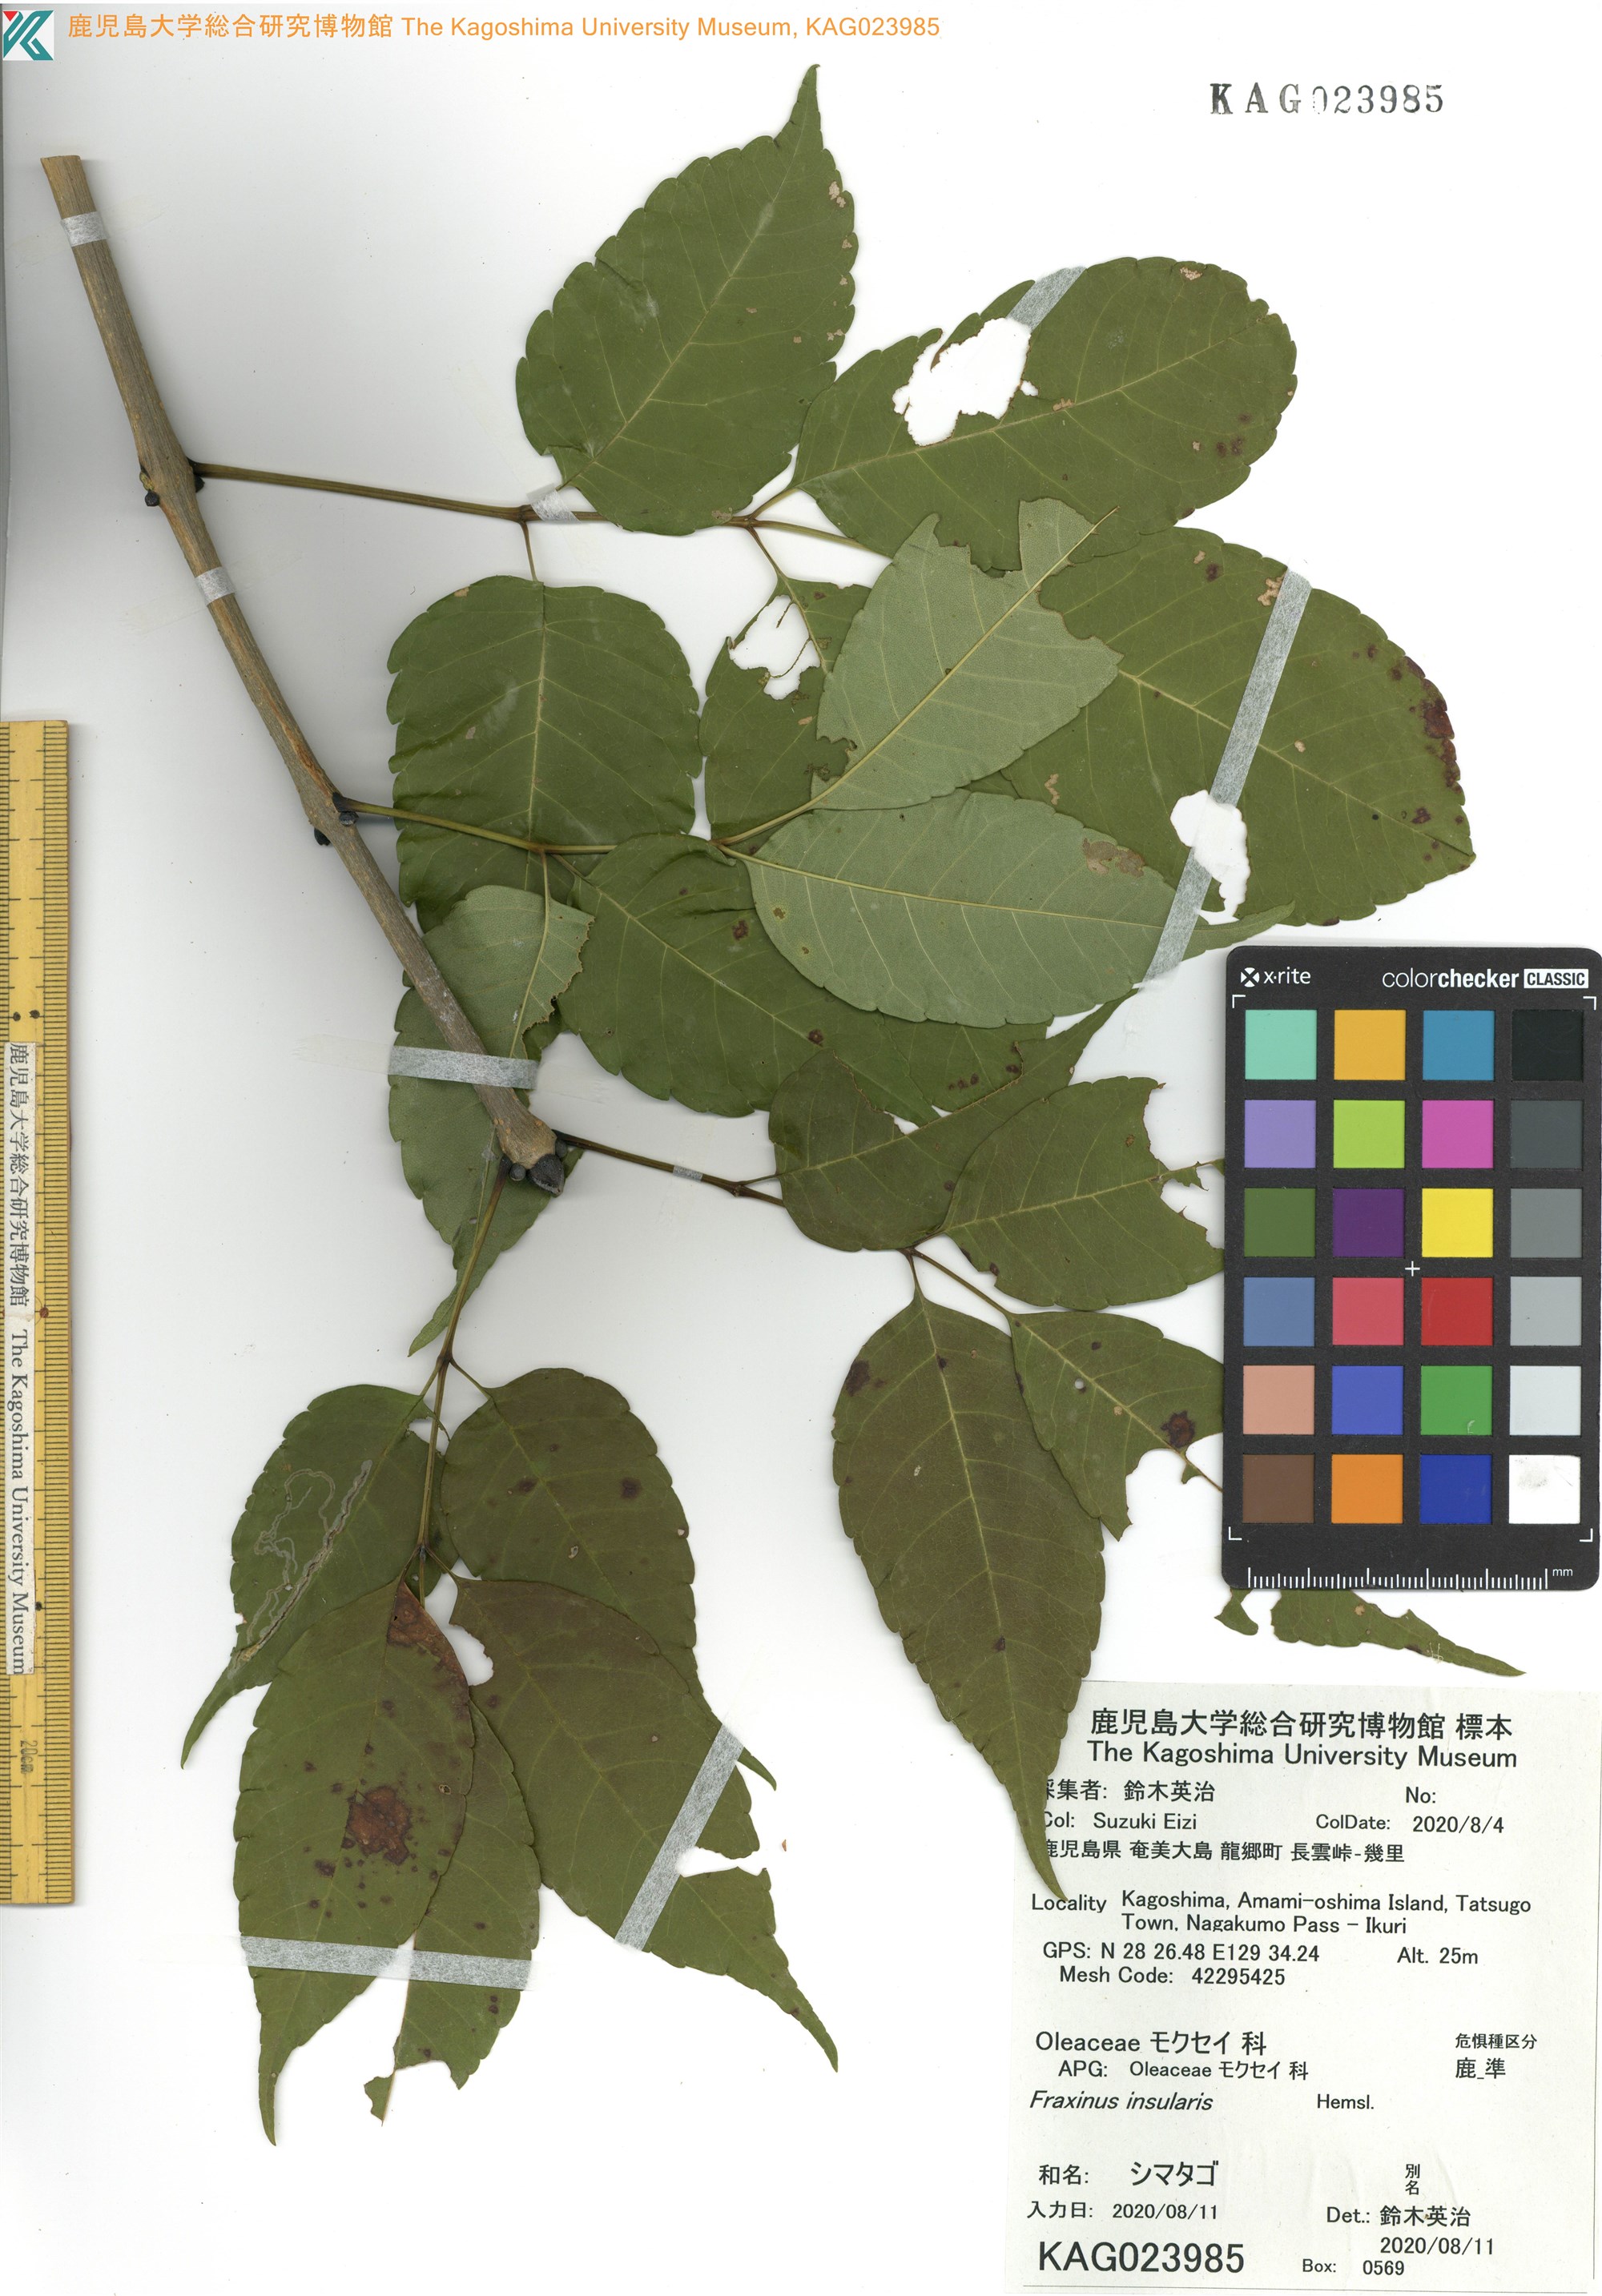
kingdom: Plantae
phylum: Tracheophyta
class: Magnoliopsida
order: Lamiales
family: Oleaceae
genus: Fraxinus
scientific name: Fraxinus insularis
